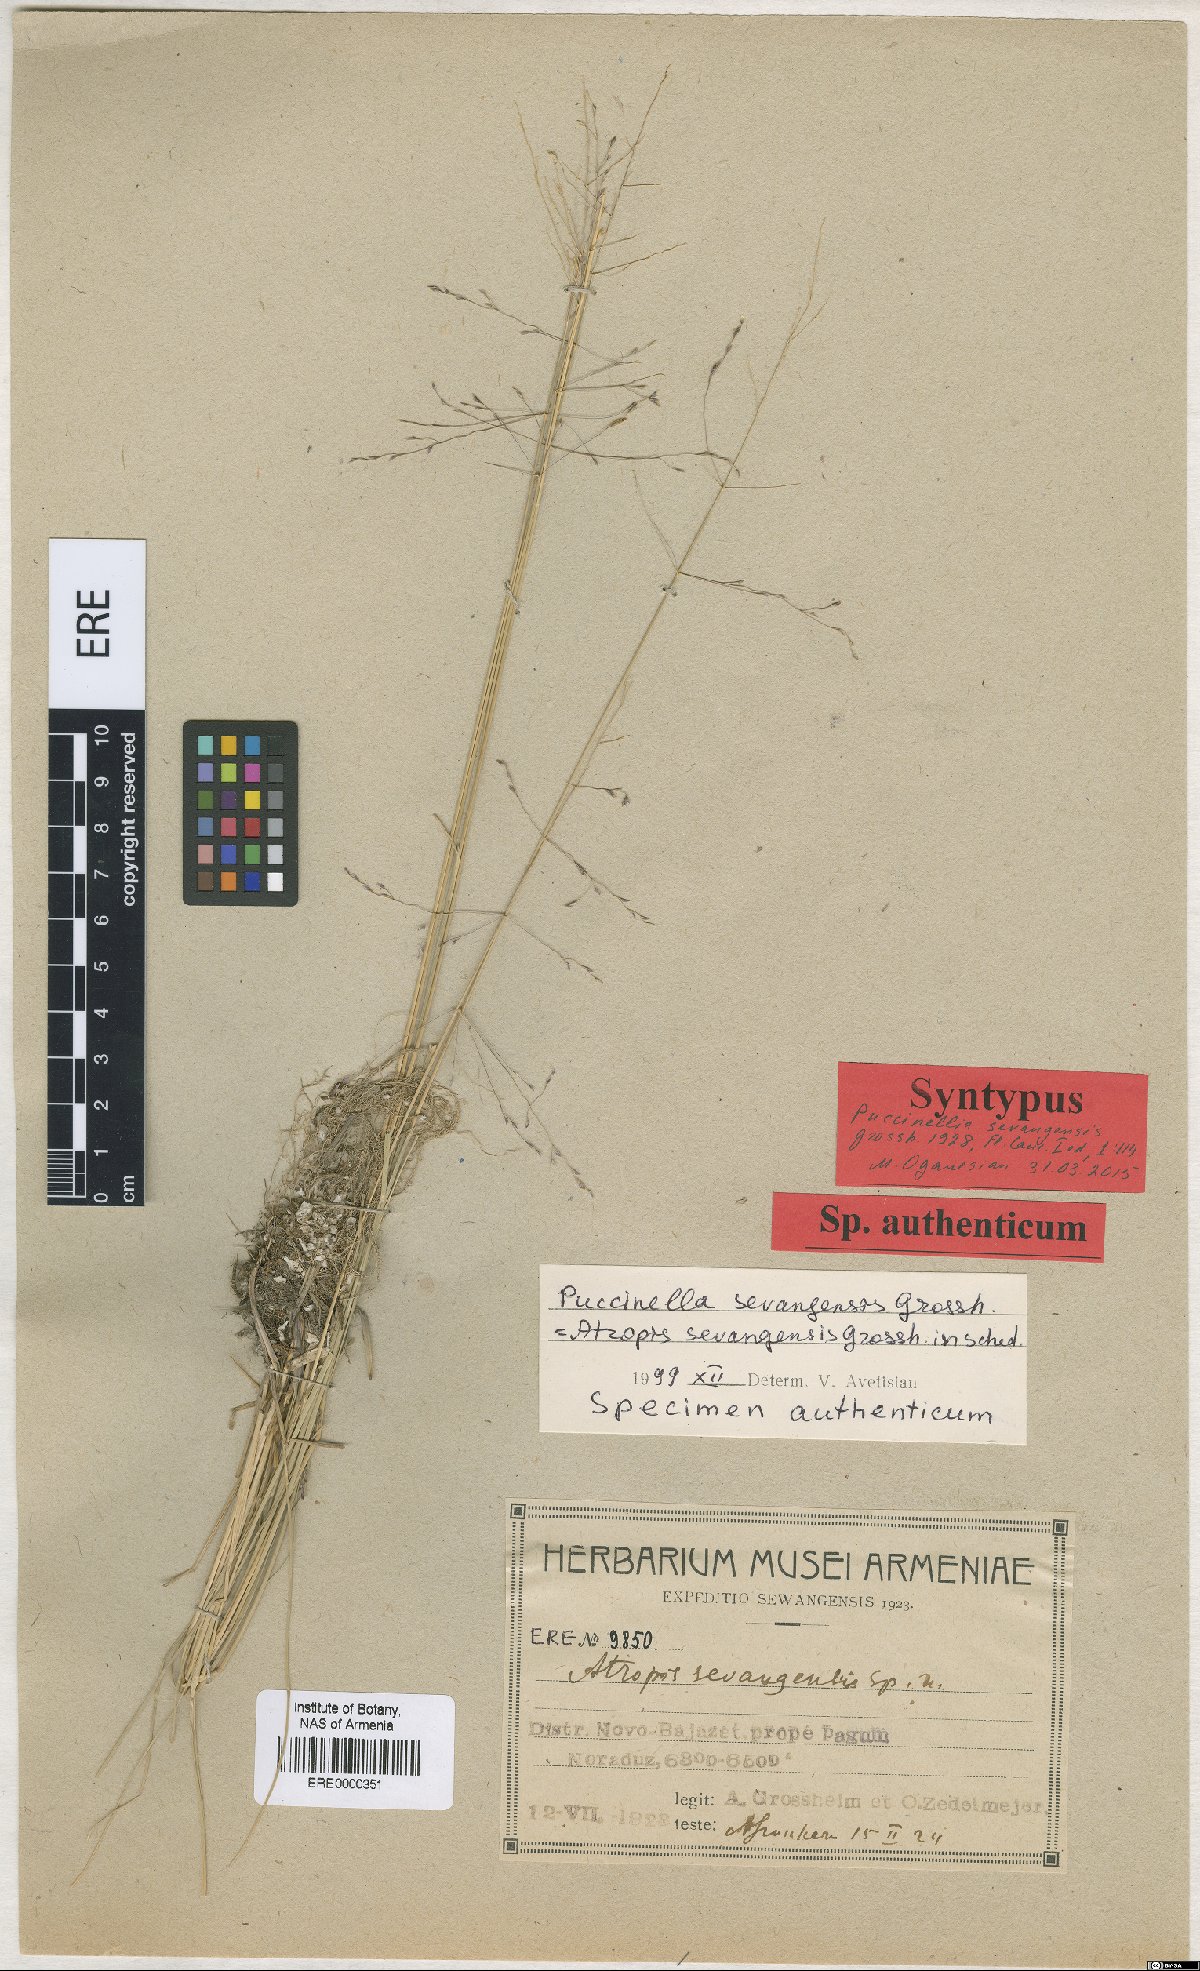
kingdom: Plantae
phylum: Tracheophyta
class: Liliopsida
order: Poales
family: Poaceae
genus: Puccinellia
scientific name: Puccinellia distans
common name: Weeping alkaligrass
